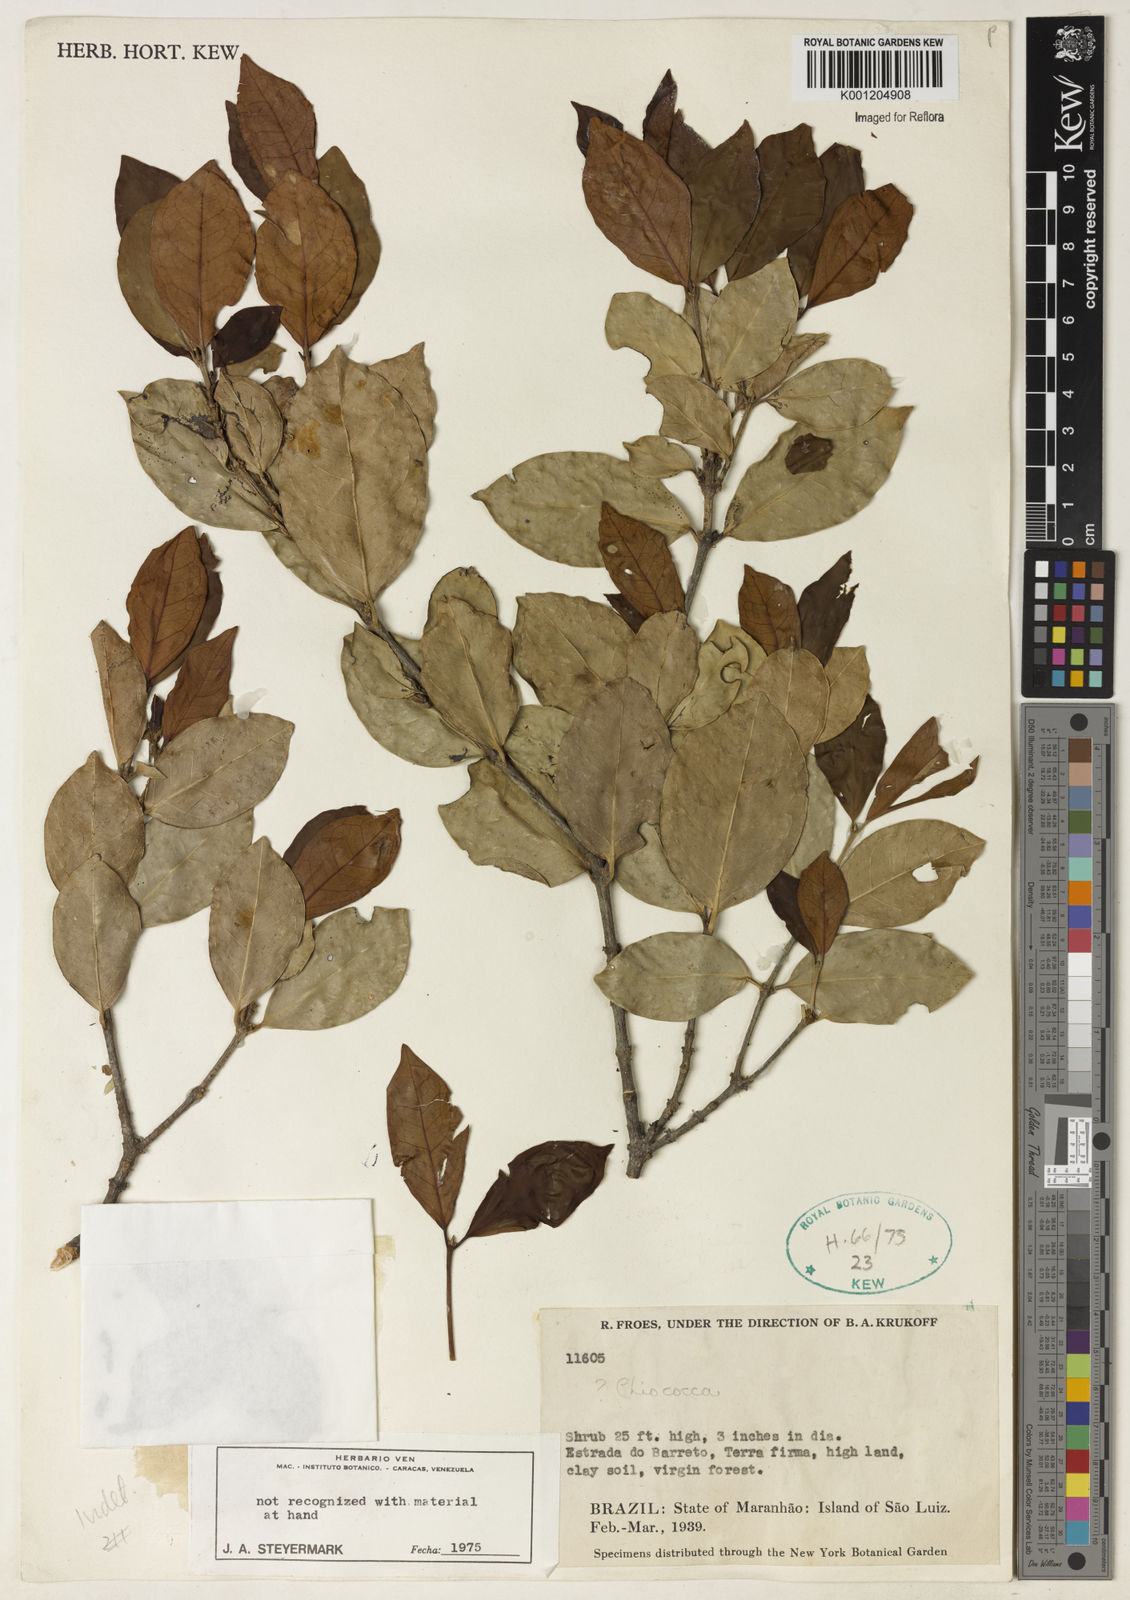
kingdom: Plantae
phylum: Tracheophyta
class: Magnoliopsida
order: Gentianales
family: Rubiaceae
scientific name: Rubiaceae
